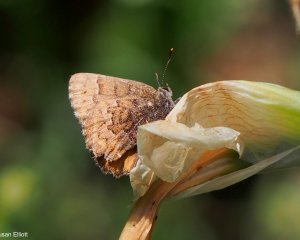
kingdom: Animalia
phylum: Arthropoda
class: Insecta
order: Lepidoptera
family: Lycaenidae
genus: Incisalia
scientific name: Incisalia niphon
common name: Eastern Pine Elfin
